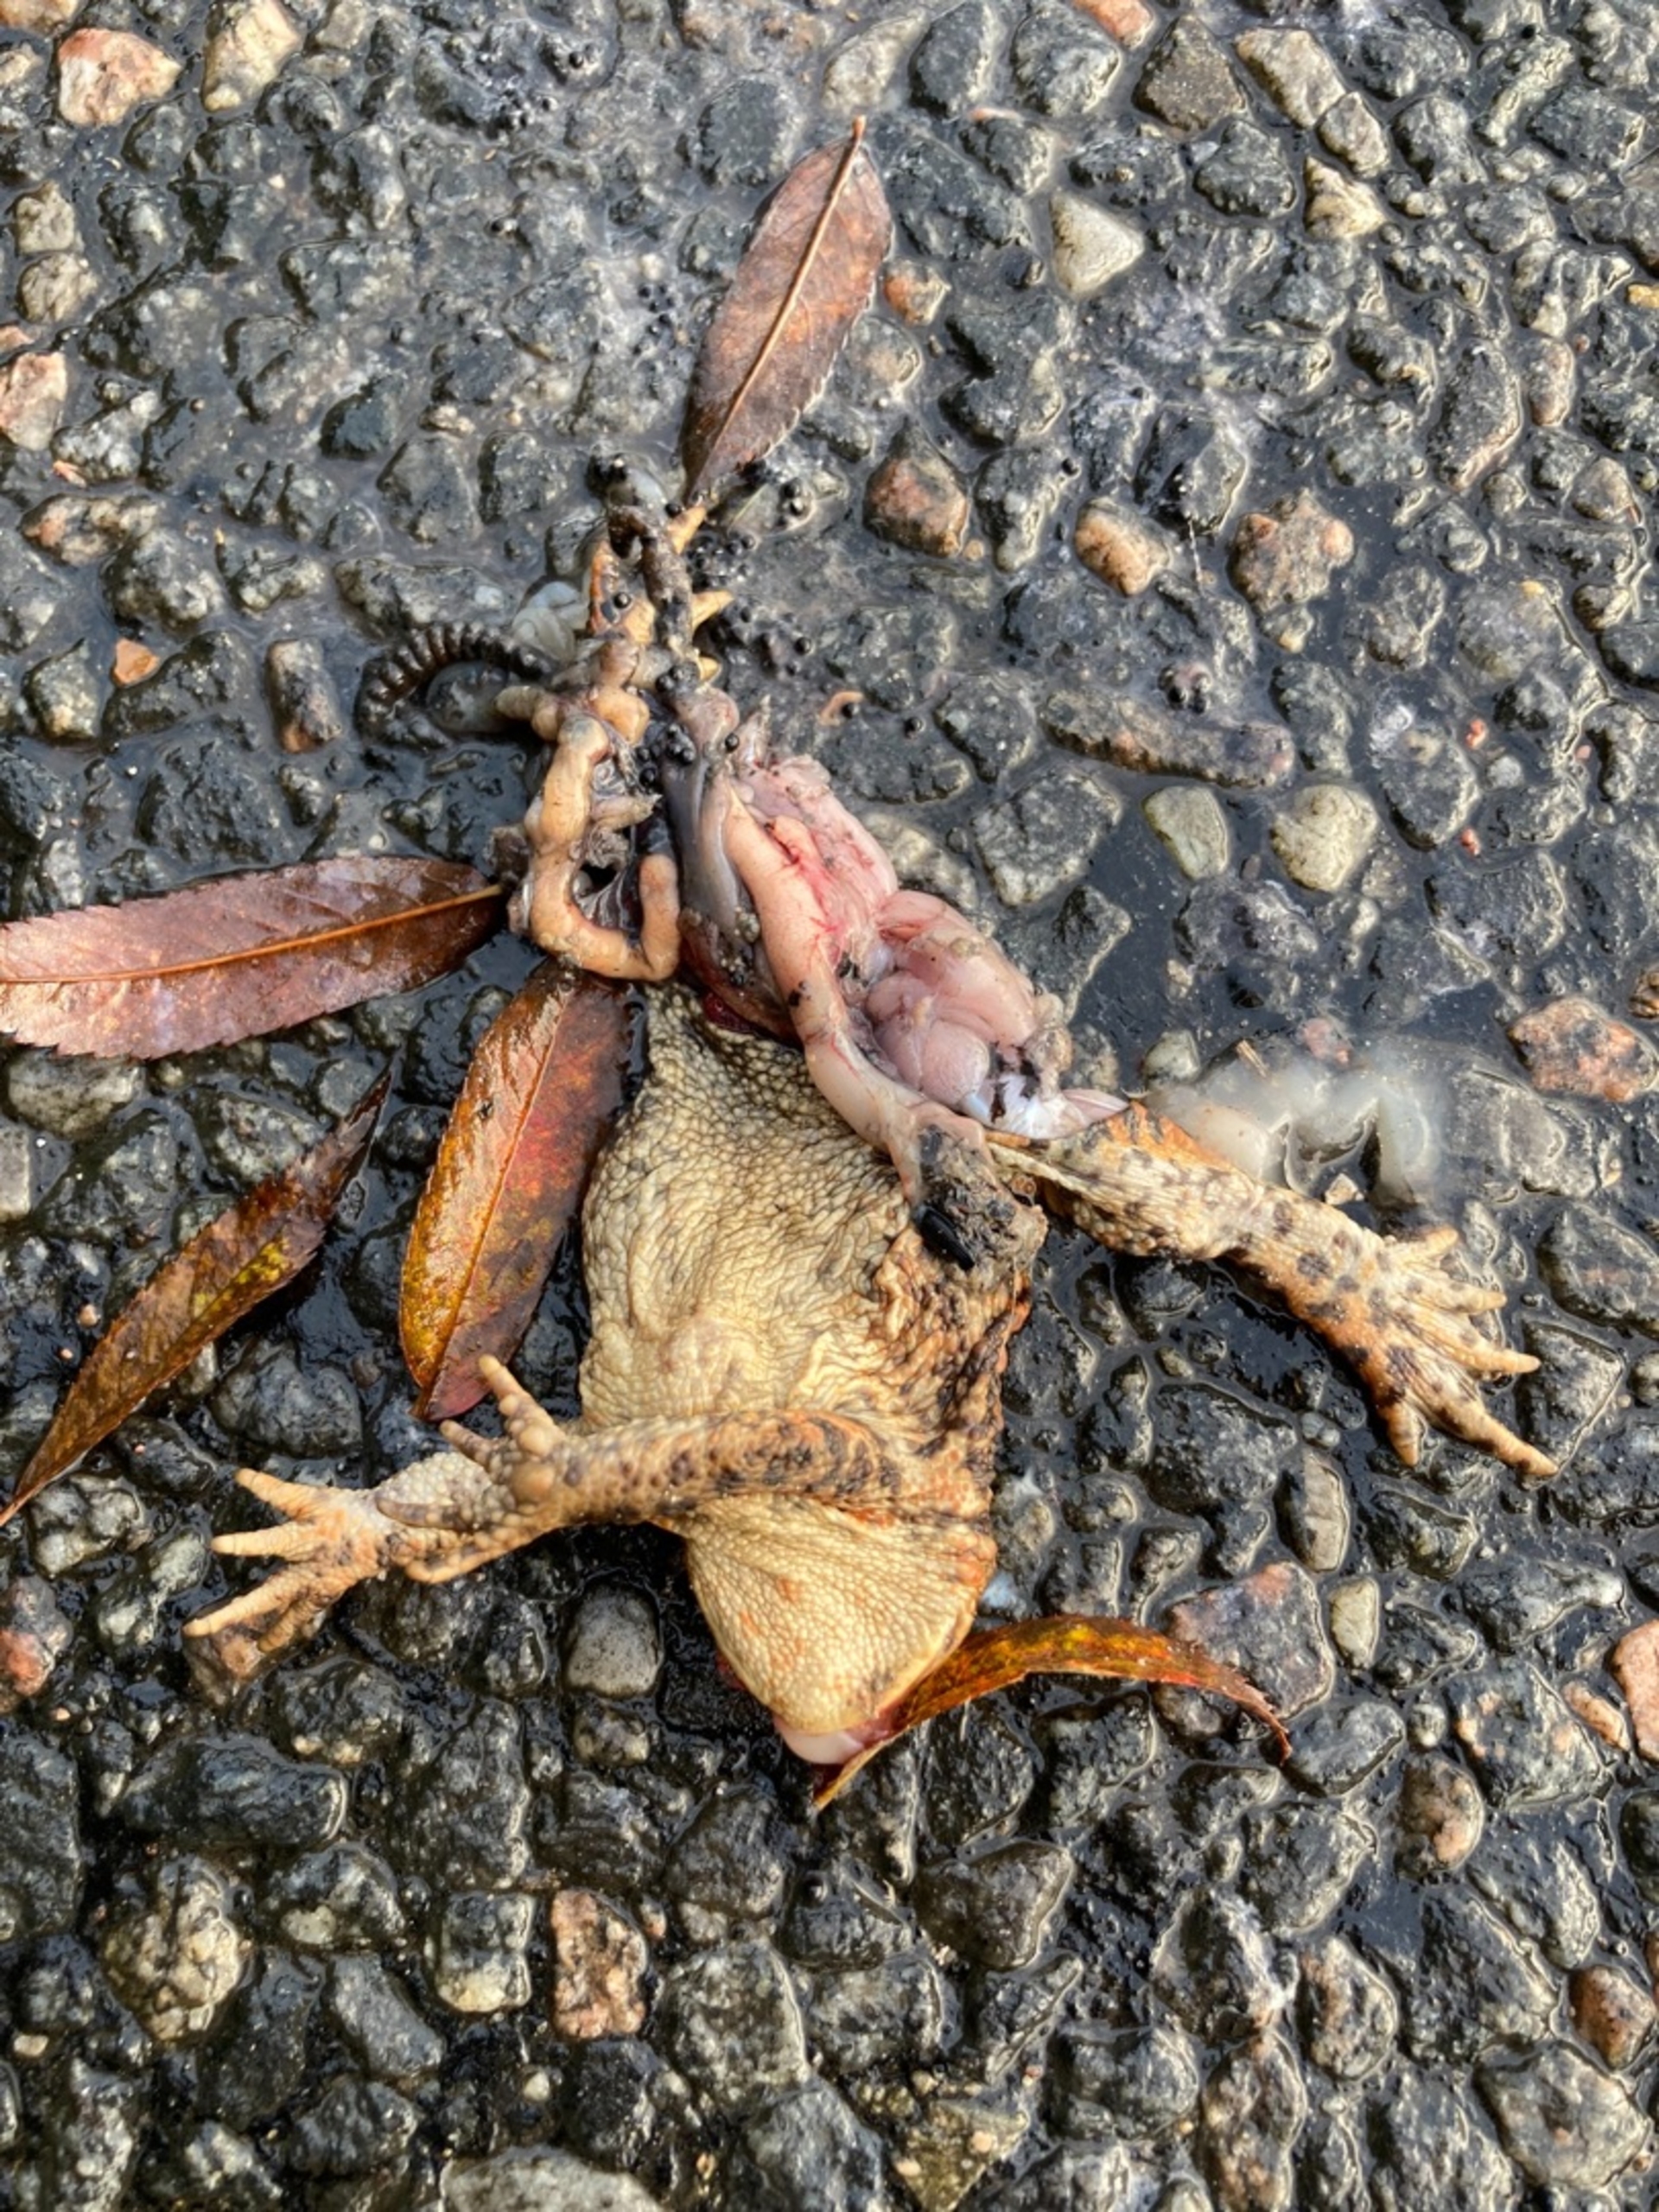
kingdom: Animalia
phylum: Chordata
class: Amphibia
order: Anura
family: Bufonidae
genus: Bufo
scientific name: Bufo bufo
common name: Skrubtudse
